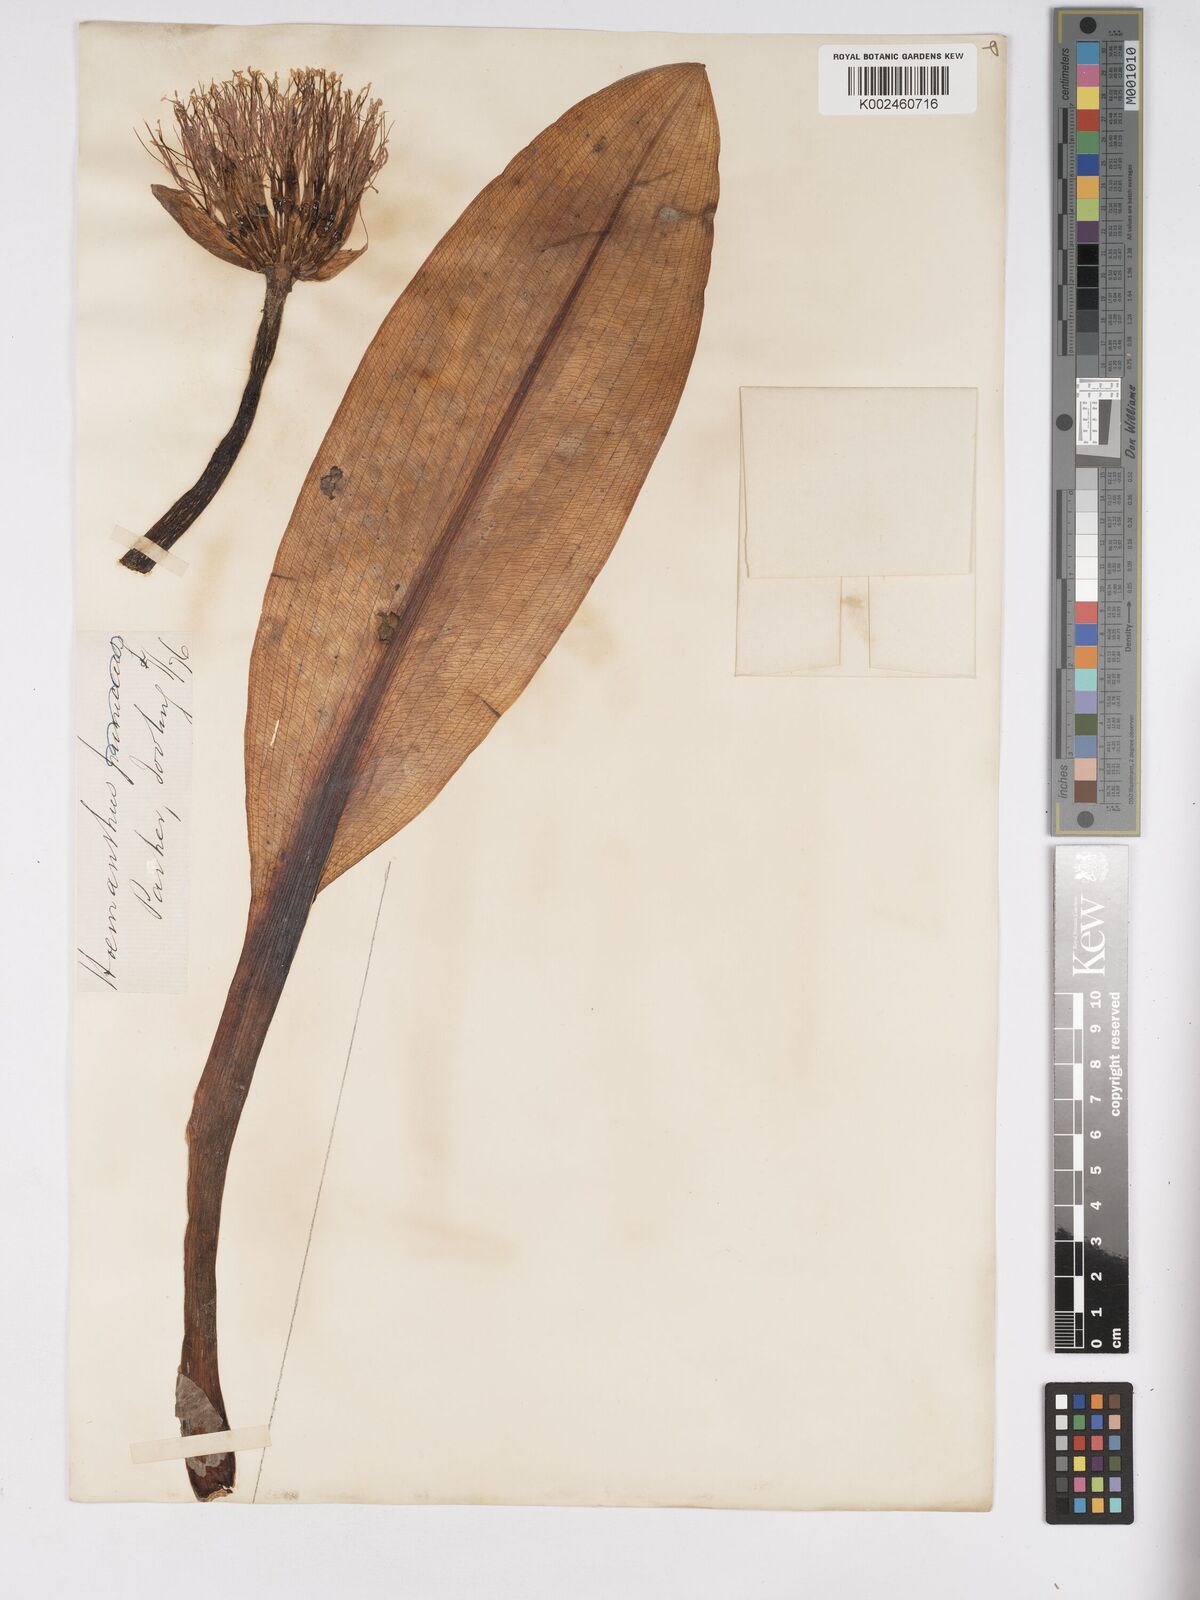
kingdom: Plantae
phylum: Tracheophyta
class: Liliopsida
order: Asparagales
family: Amaryllidaceae
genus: Scadoxus
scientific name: Scadoxus puniceus
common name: Royal-paintbrush
